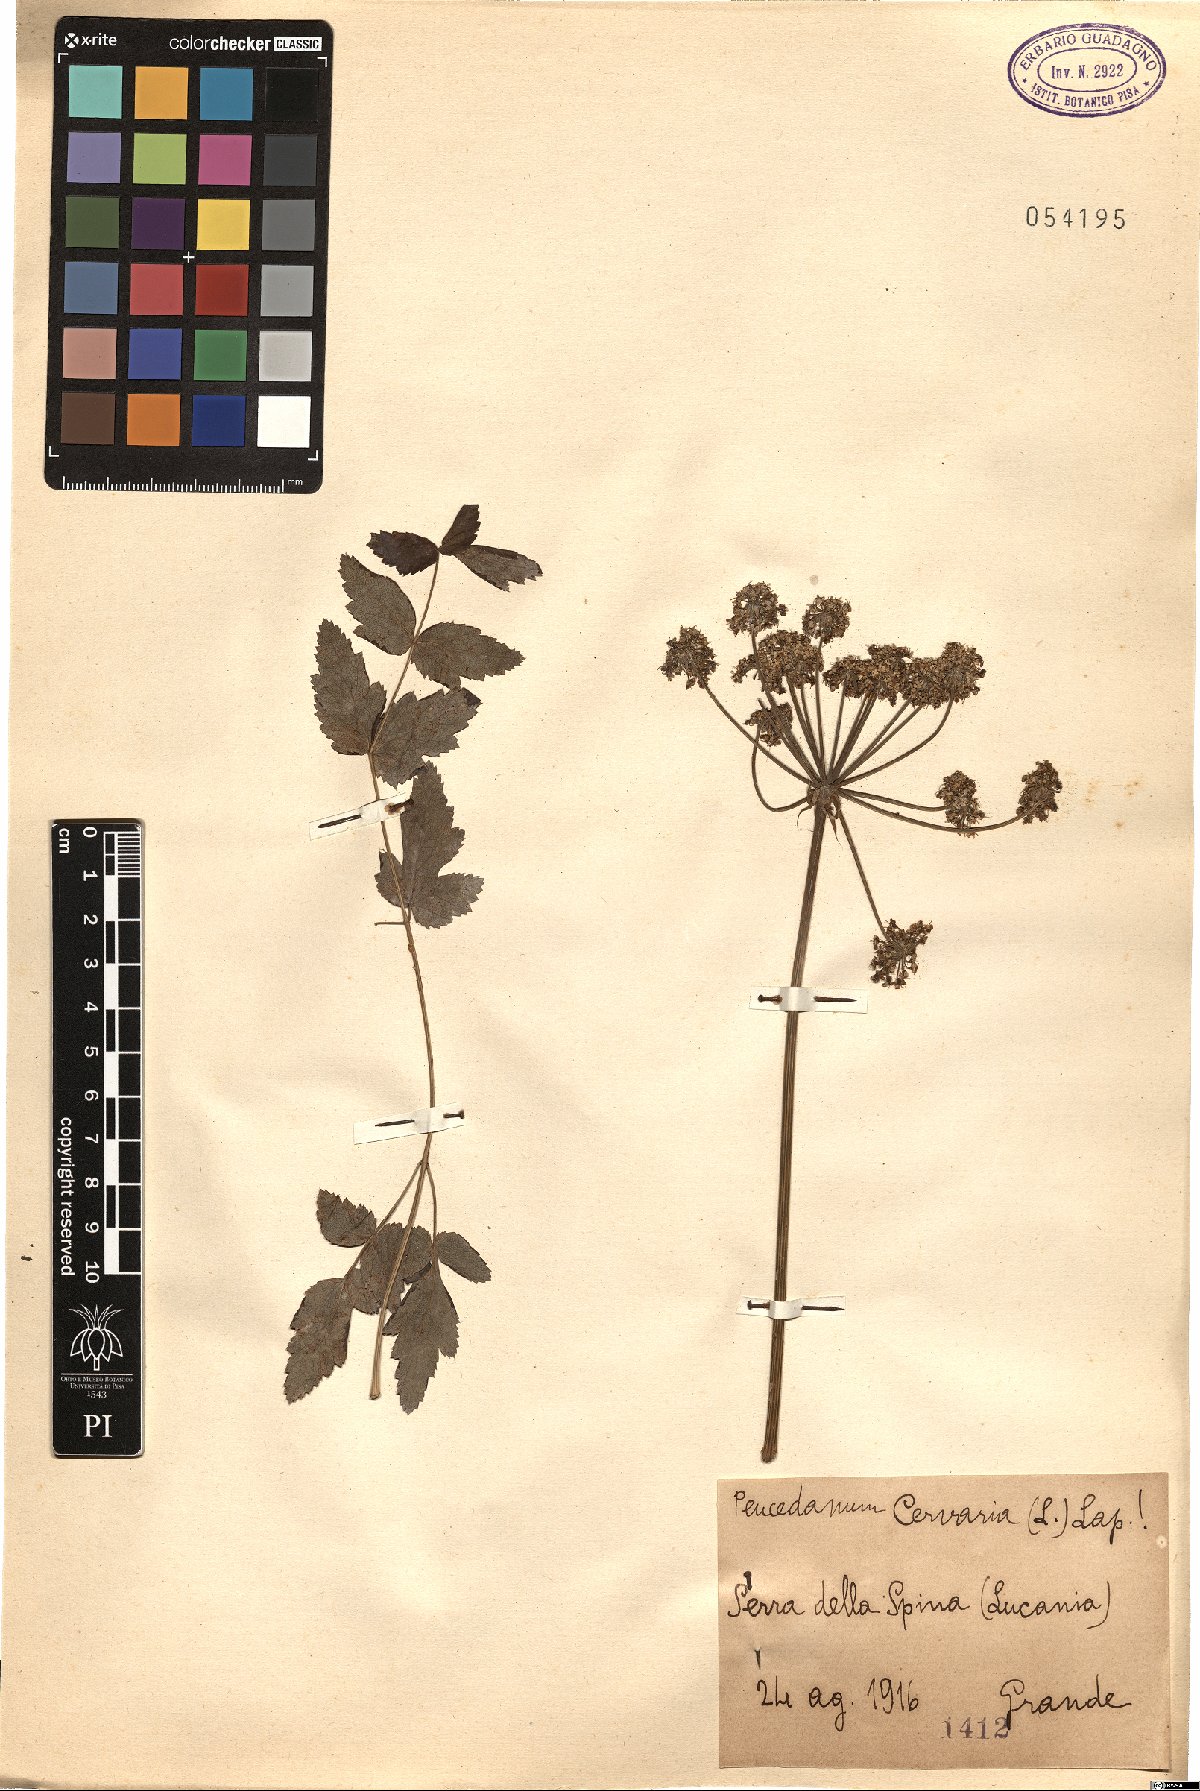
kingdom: Plantae
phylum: Tracheophyta
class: Magnoliopsida
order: Apiales
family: Apiaceae
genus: Cervaria
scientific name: Cervaria rivini
